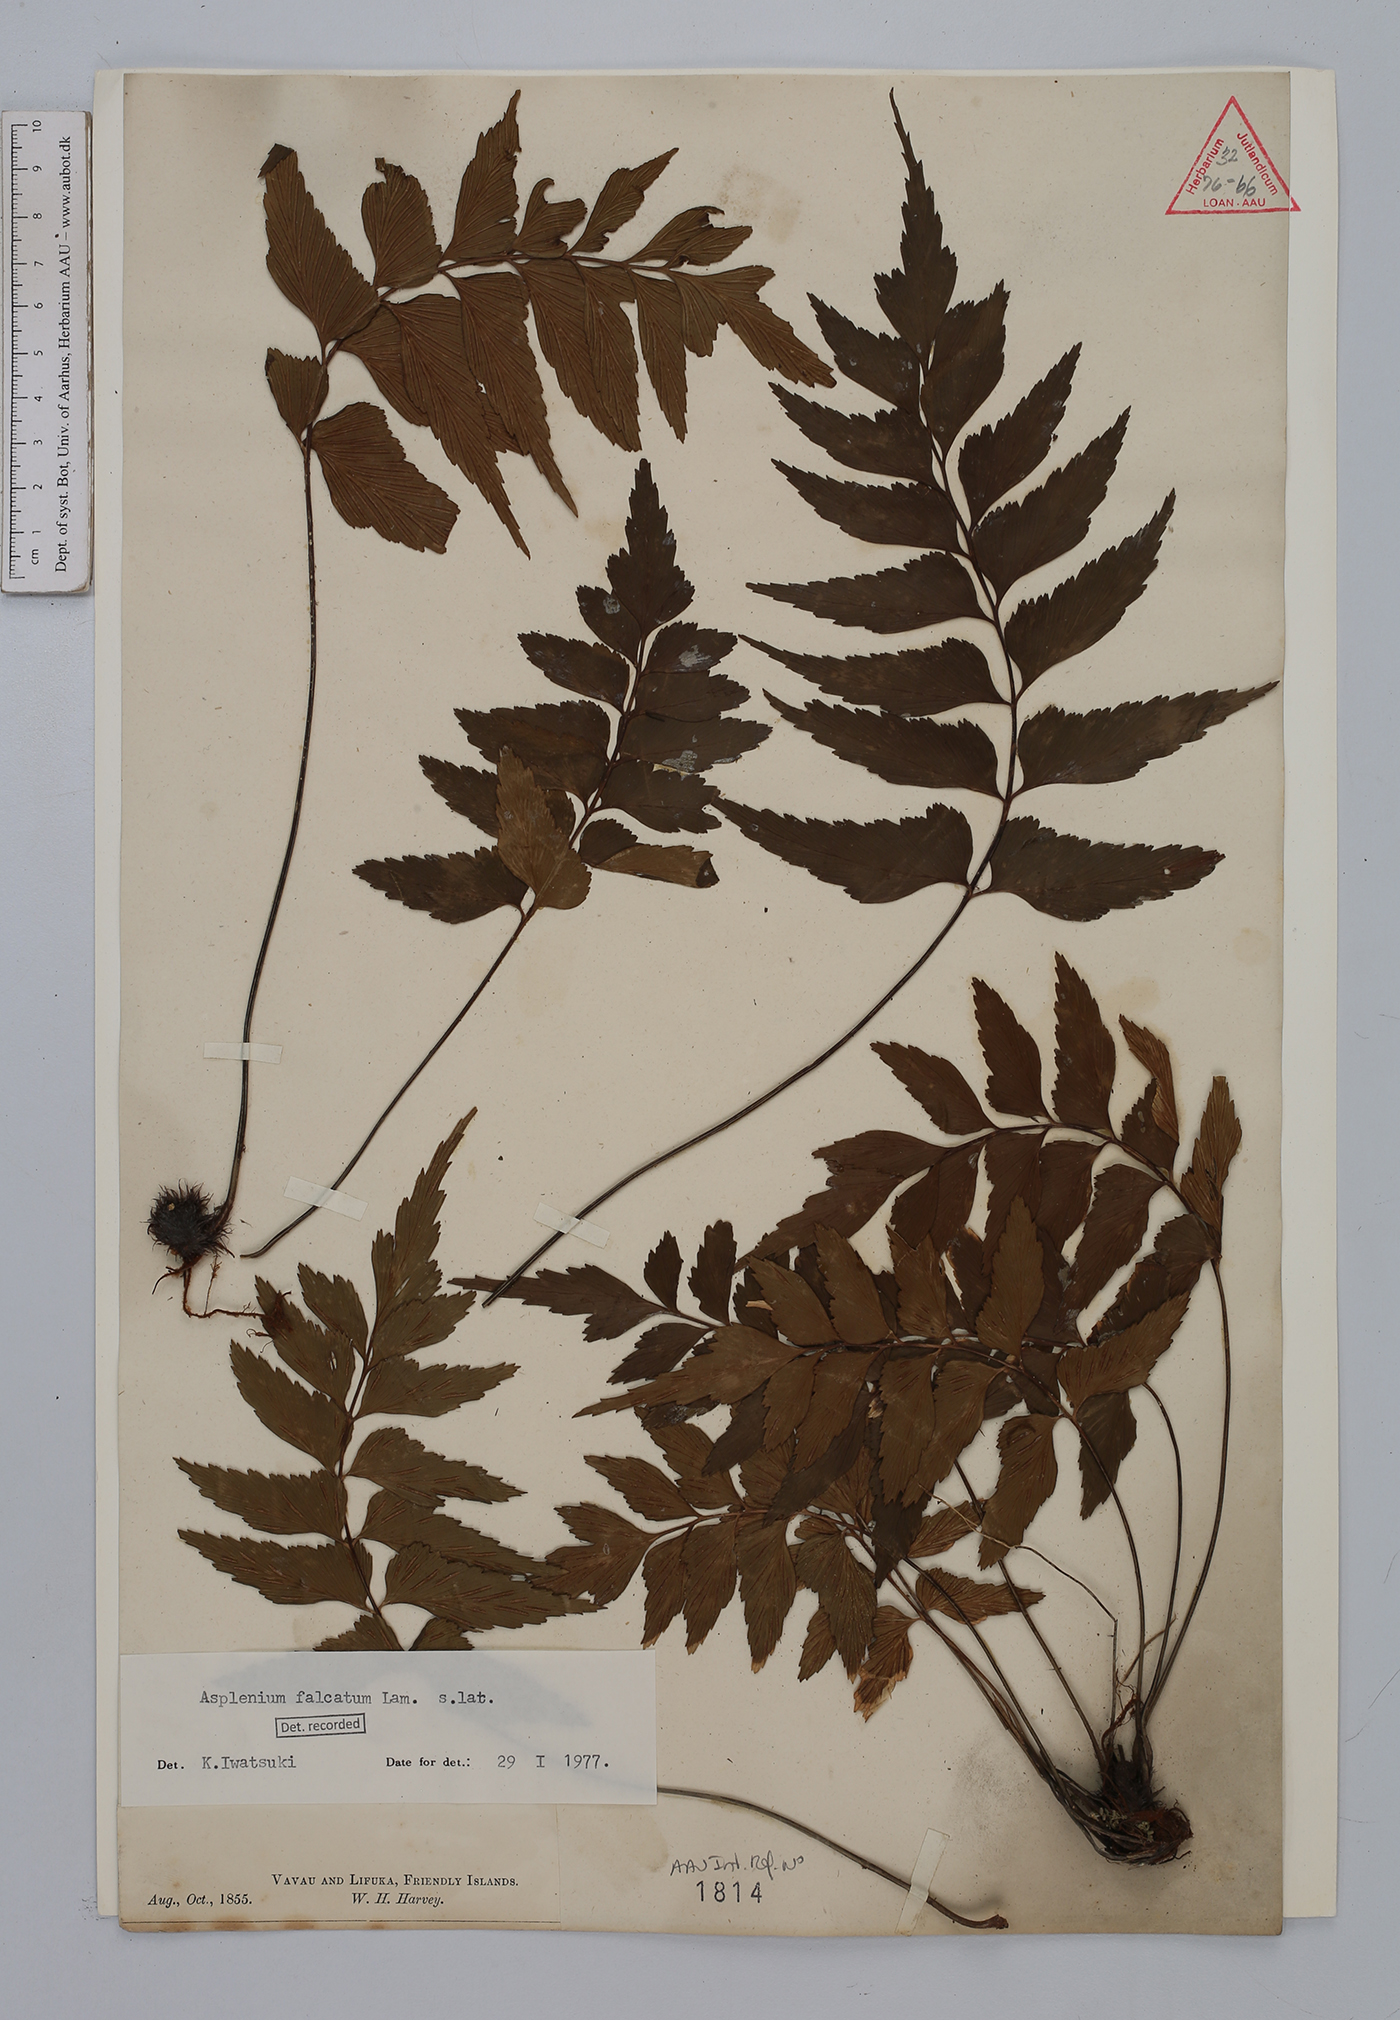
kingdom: Plantae
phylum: Tracheophyta
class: Polypodiopsida
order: Polypodiales
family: Aspleniaceae
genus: Asplenium
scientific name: Asplenium falcatum
